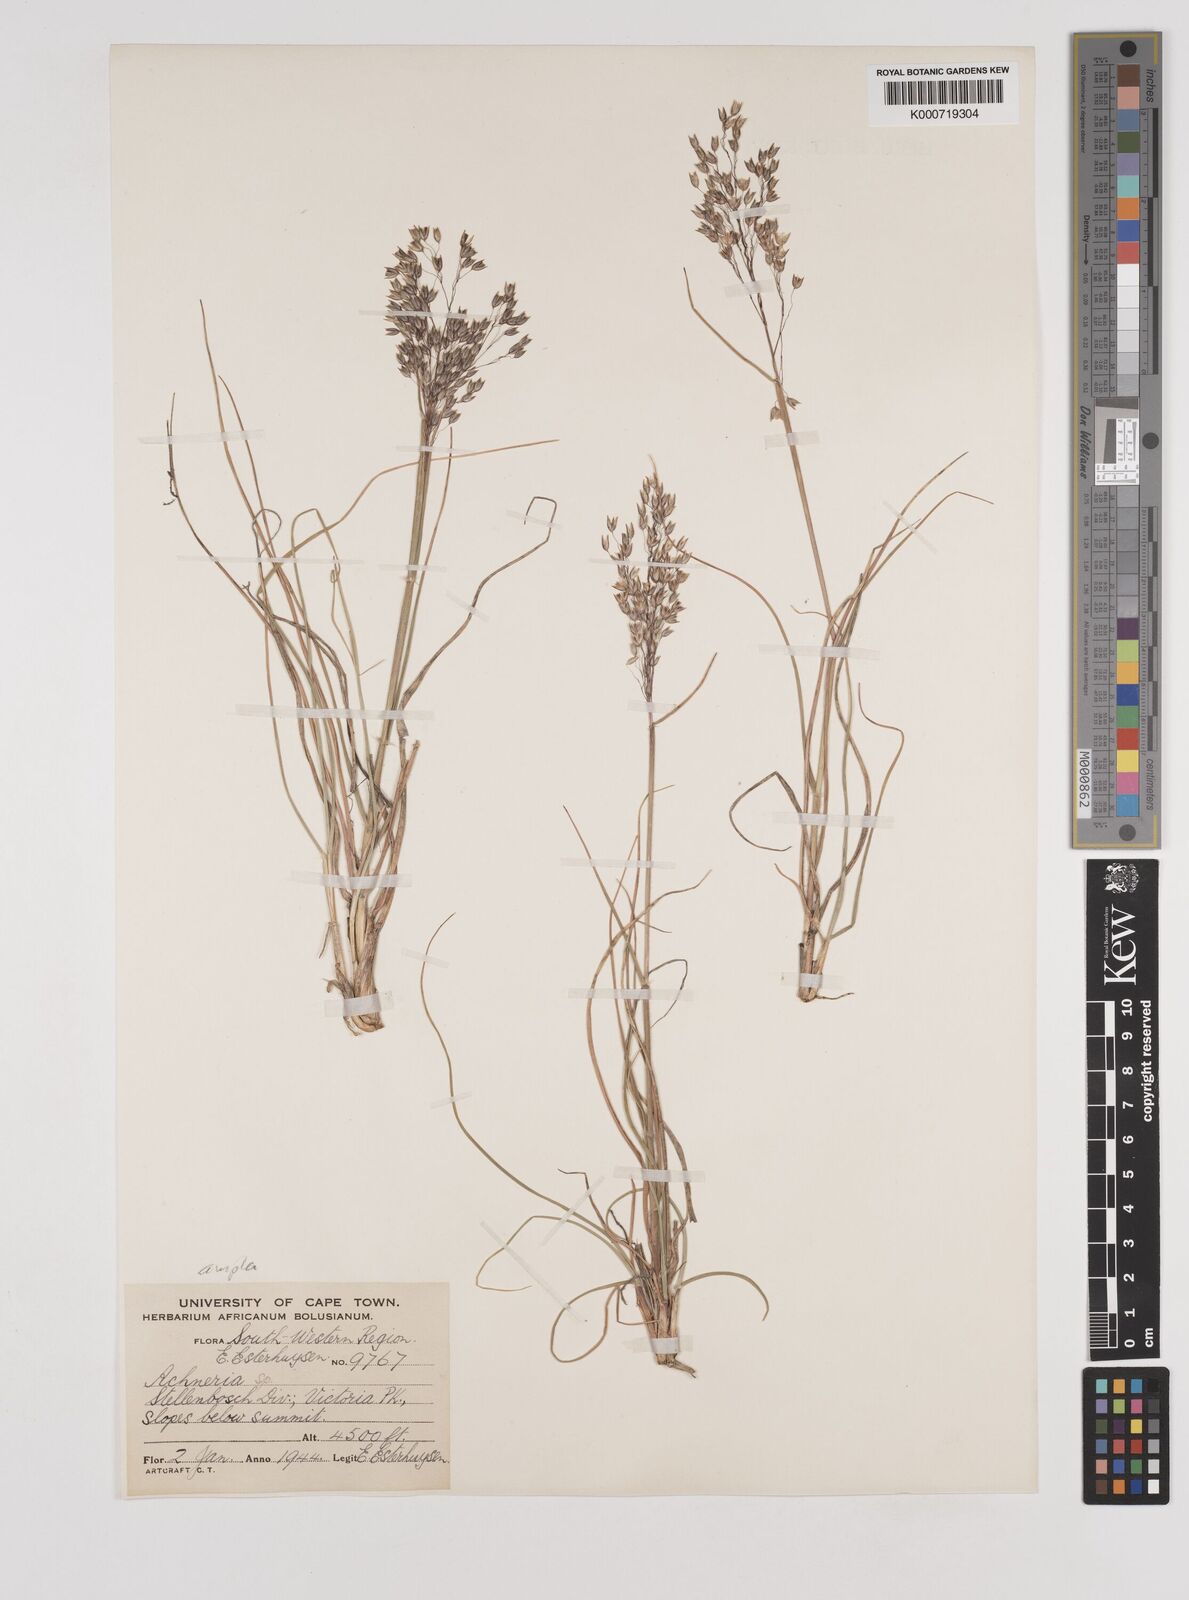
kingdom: Plantae
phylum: Tracheophyta
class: Liliopsida
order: Poales
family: Poaceae
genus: Pentameris
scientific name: Pentameris ampla
